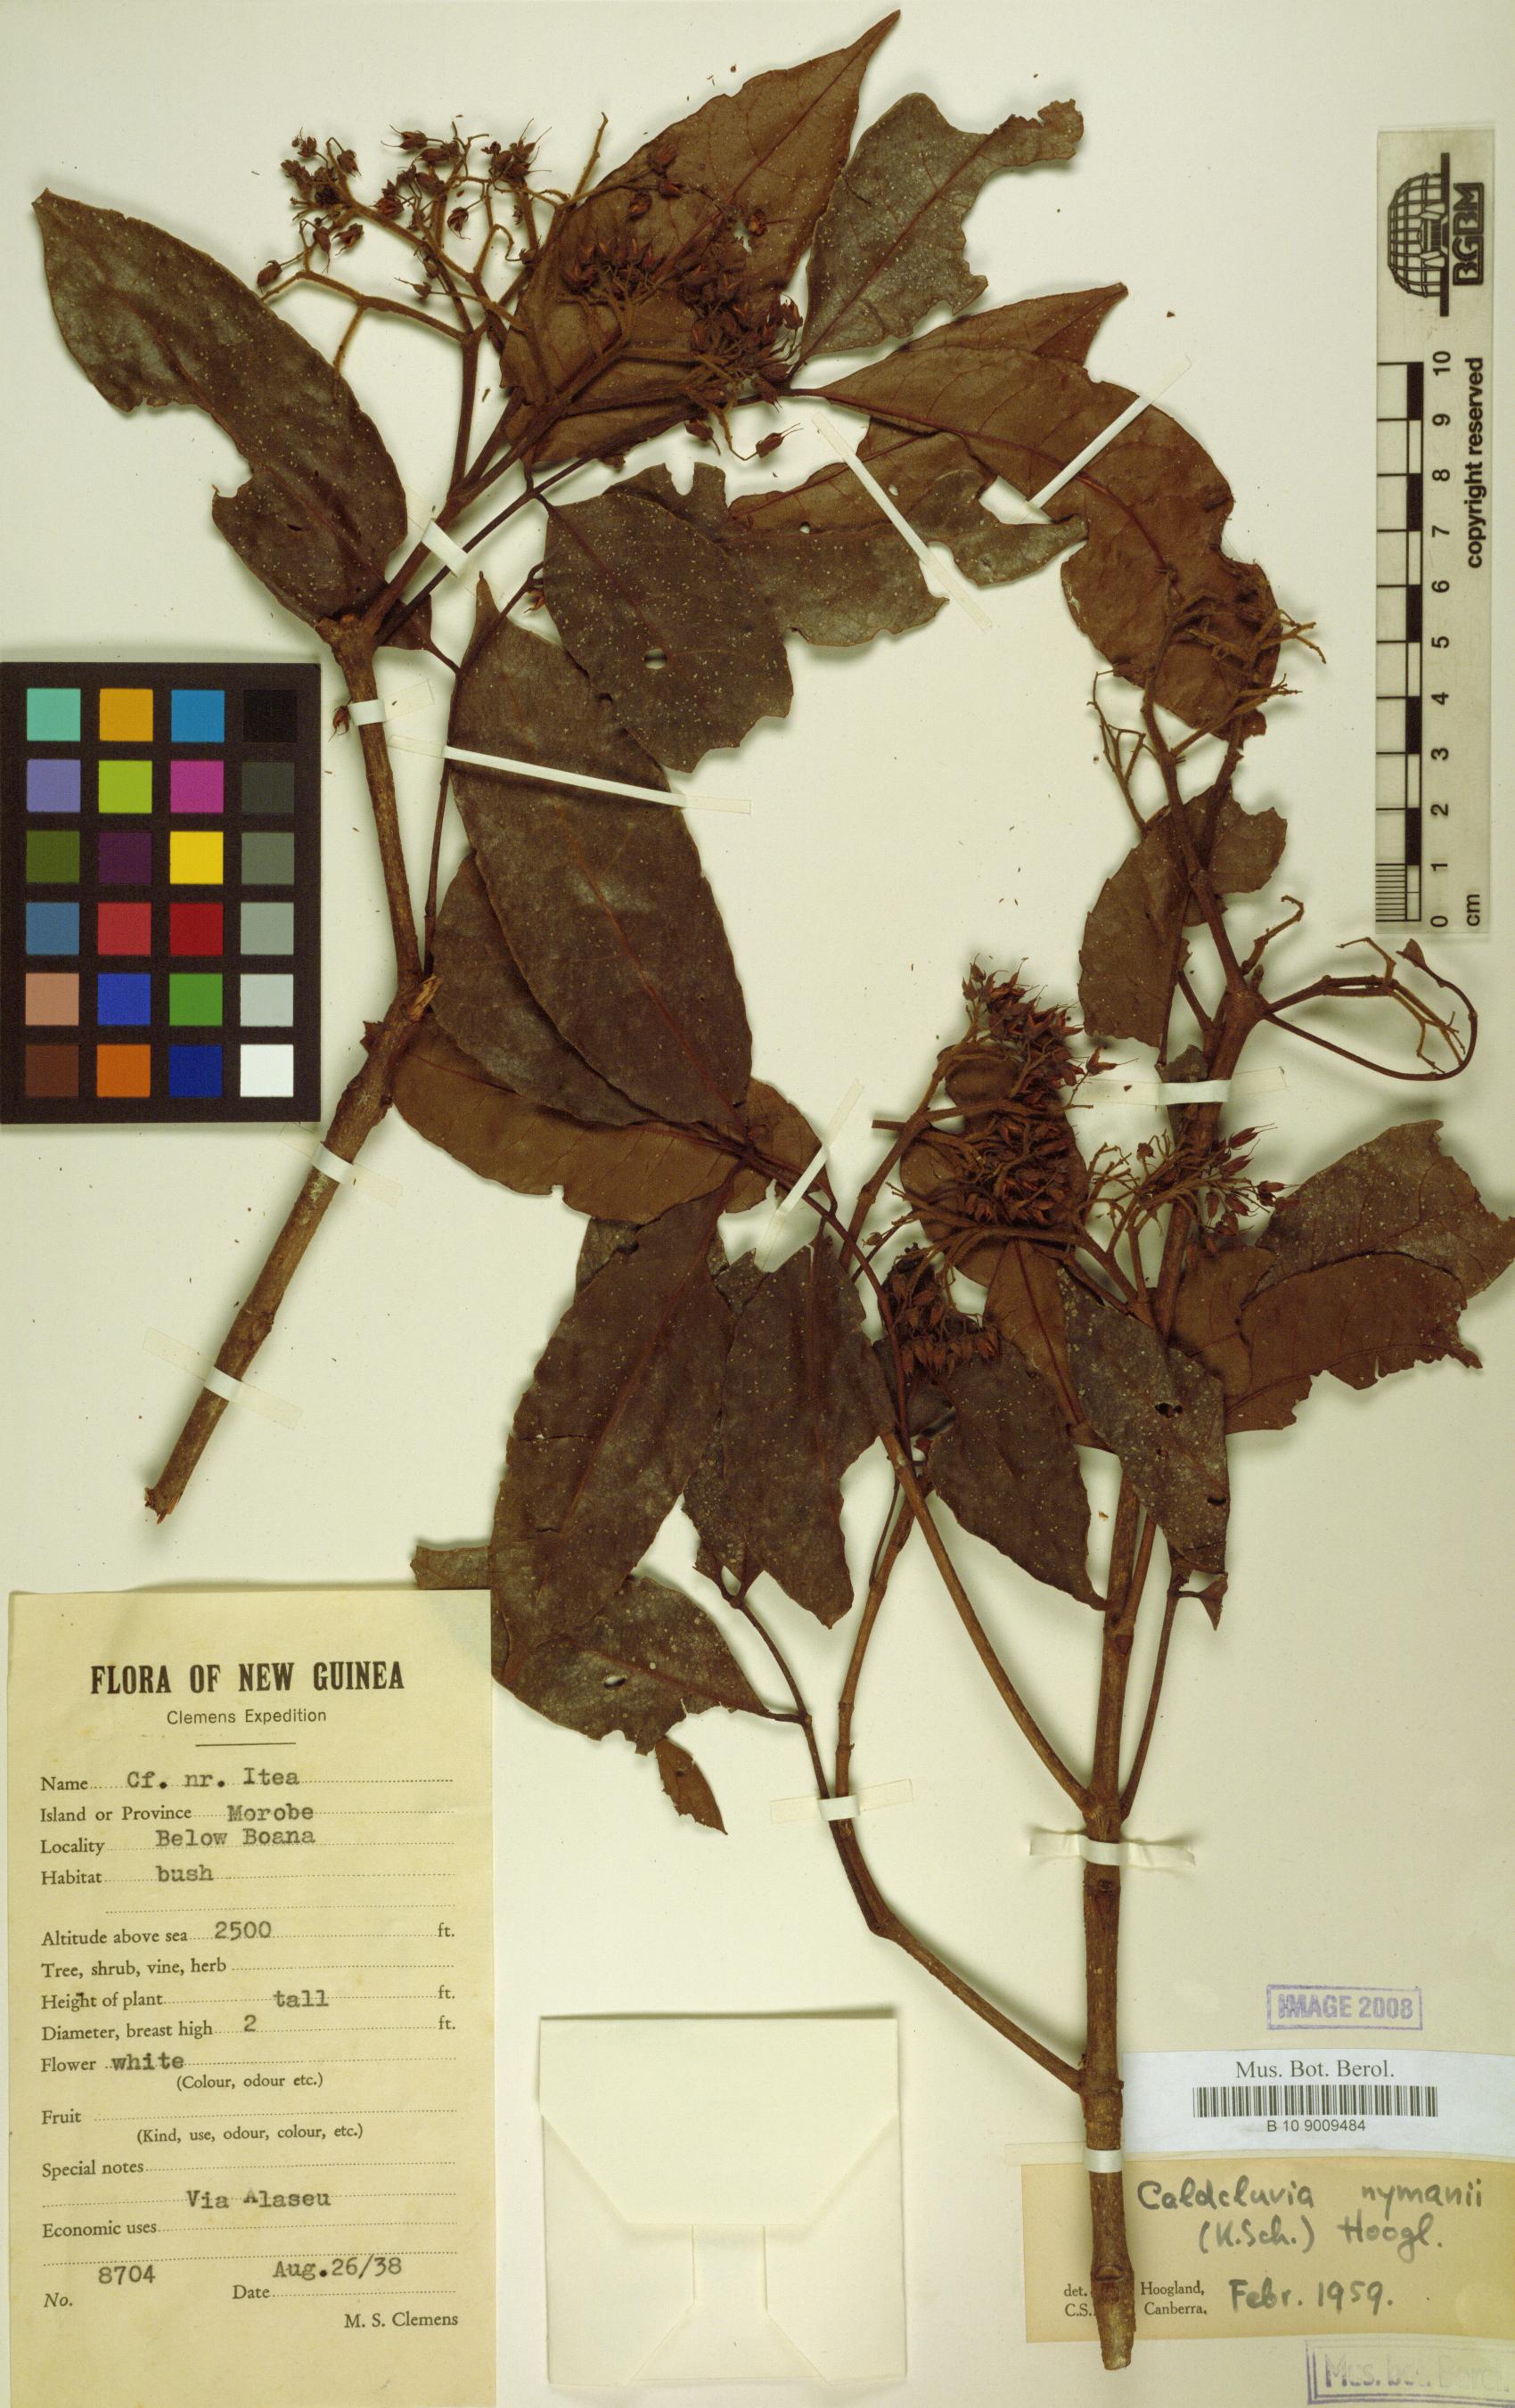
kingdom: Plantae
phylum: Tracheophyta
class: Magnoliopsida
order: Oxalidales
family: Cunoniaceae
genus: Opocunonia
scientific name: Opocunonia nymanii
